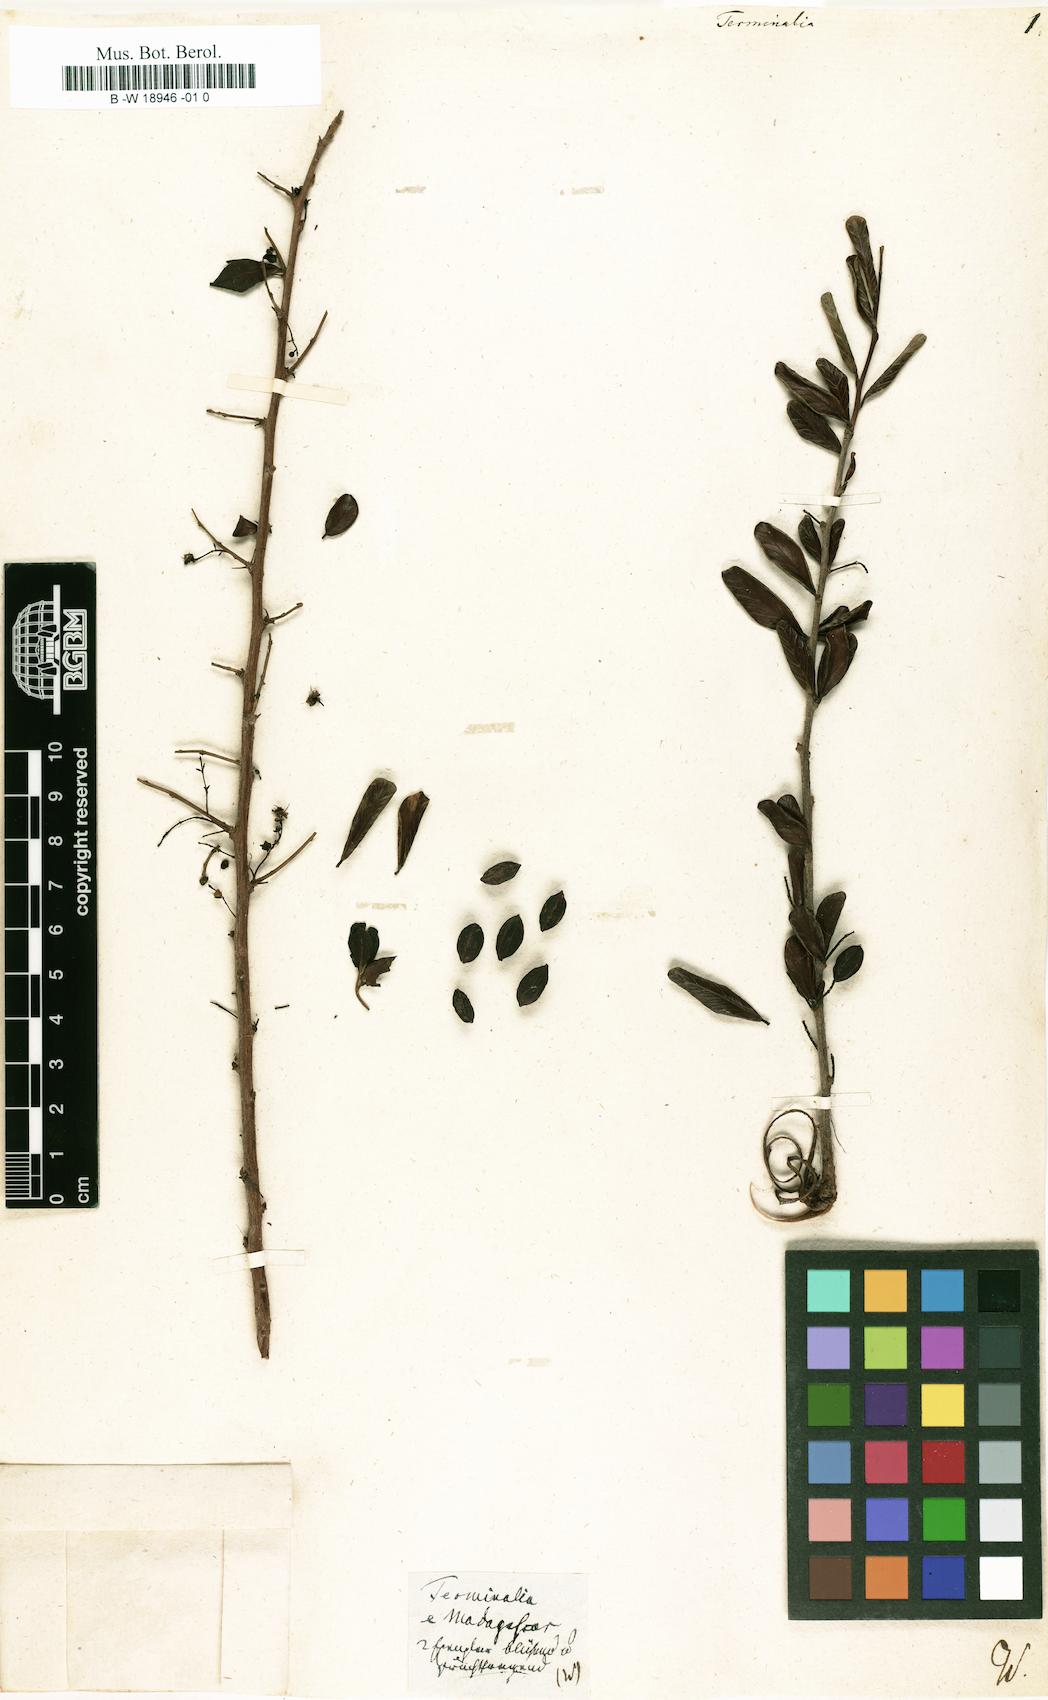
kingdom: Plantae
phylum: Tracheophyta
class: Magnoliopsida
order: Myrtales
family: Combretaceae
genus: Terminalia
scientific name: Terminalia
